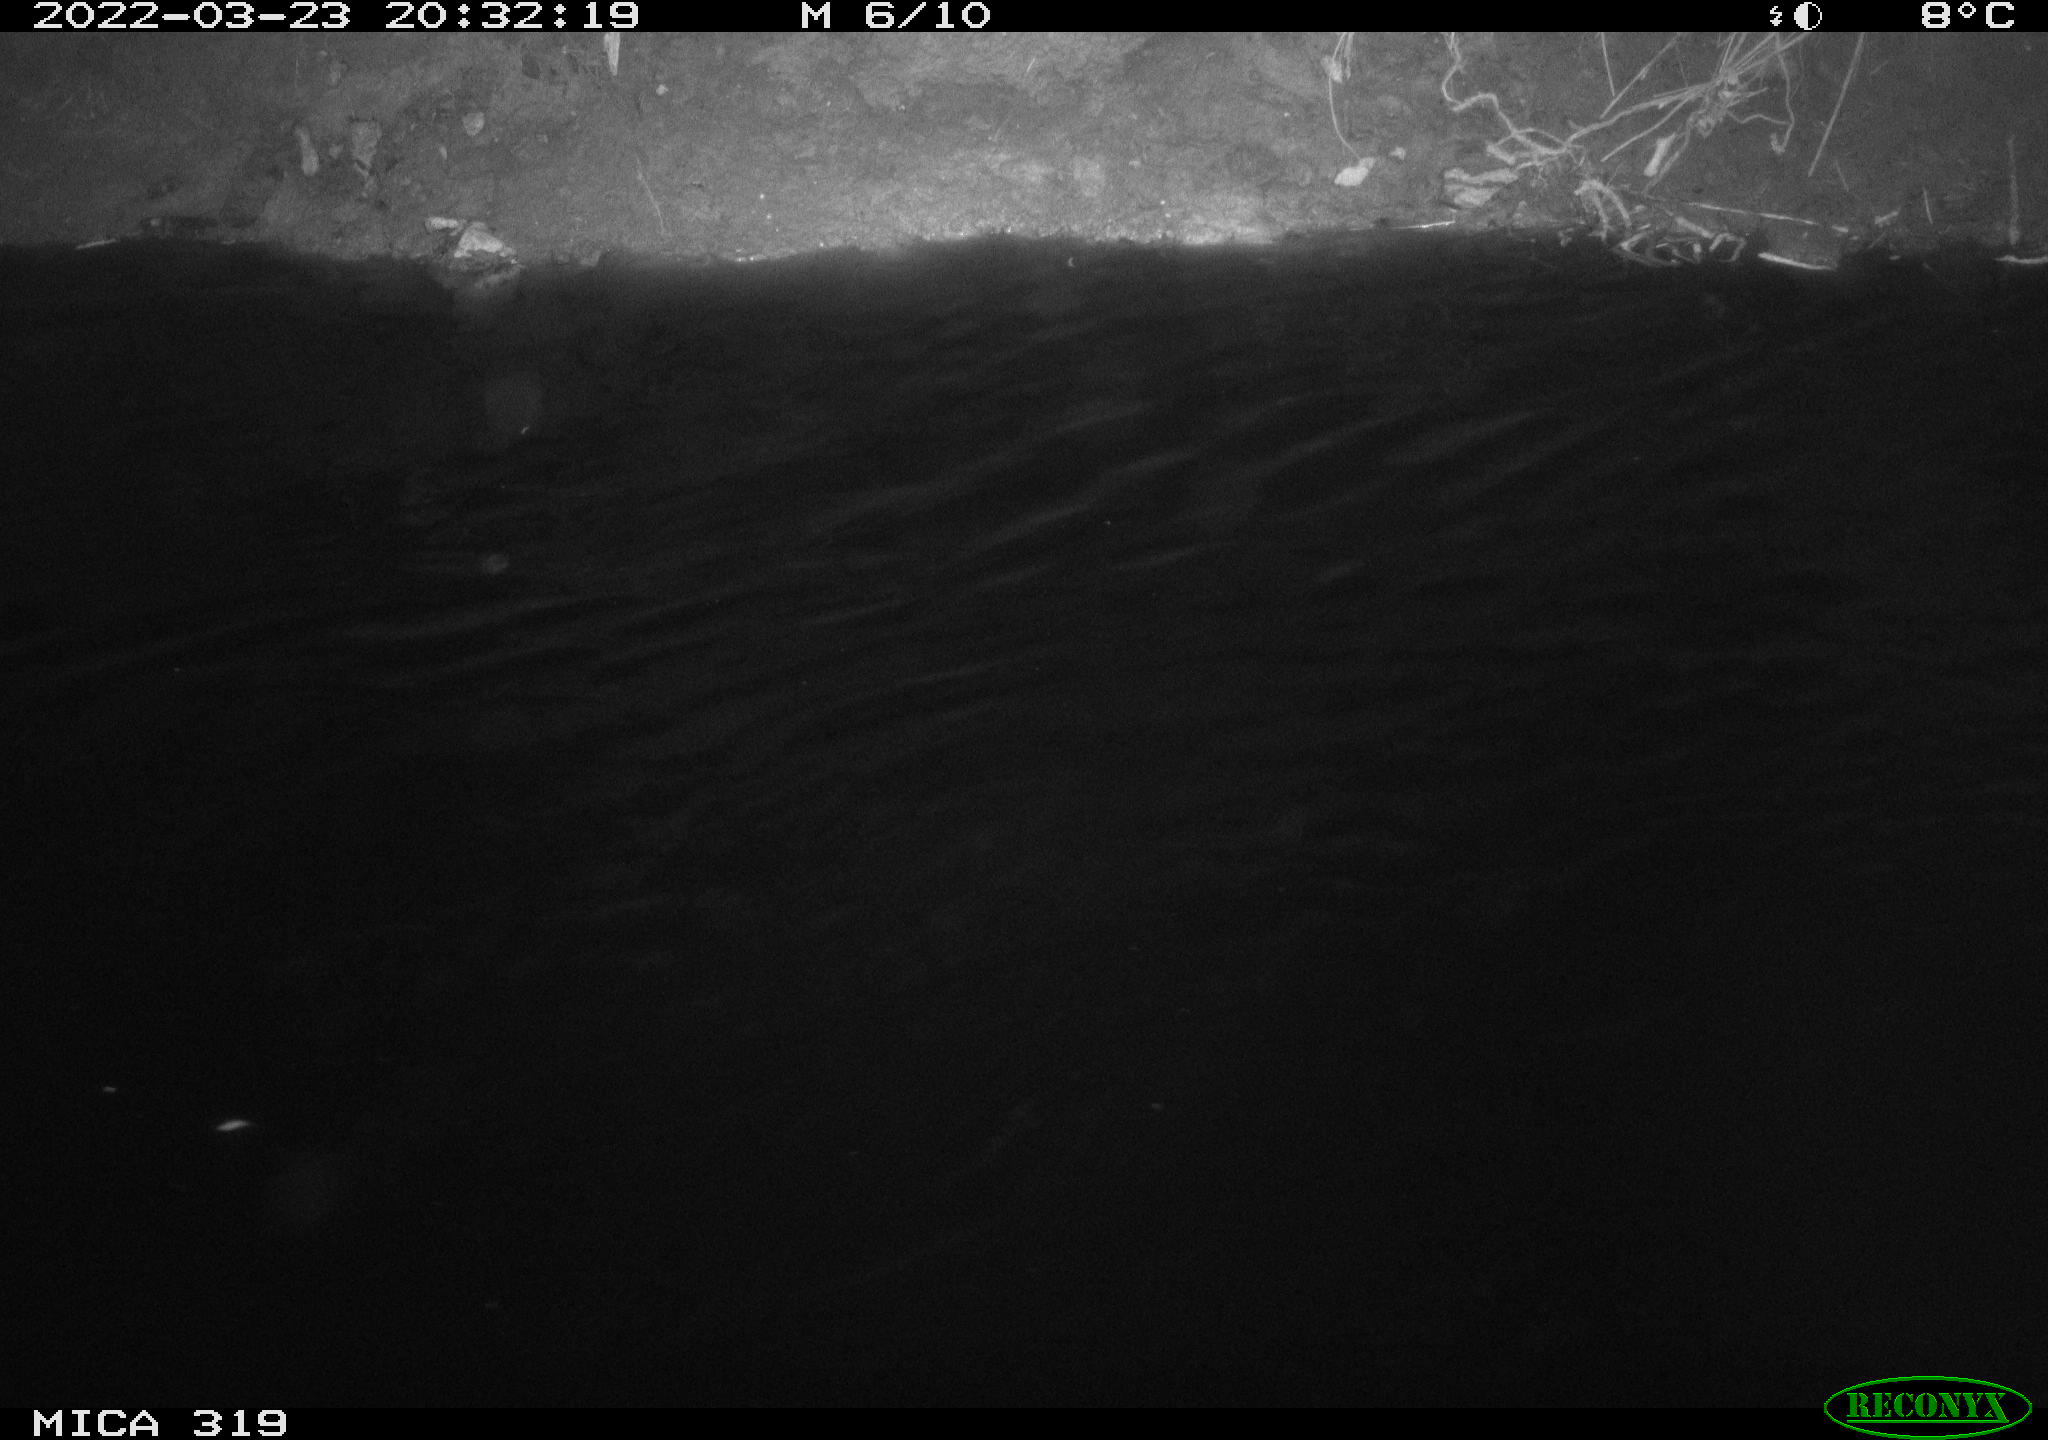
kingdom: Animalia
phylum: Chordata
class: Aves
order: Anseriformes
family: Anatidae
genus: Anas
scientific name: Anas platyrhynchos
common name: Mallard
